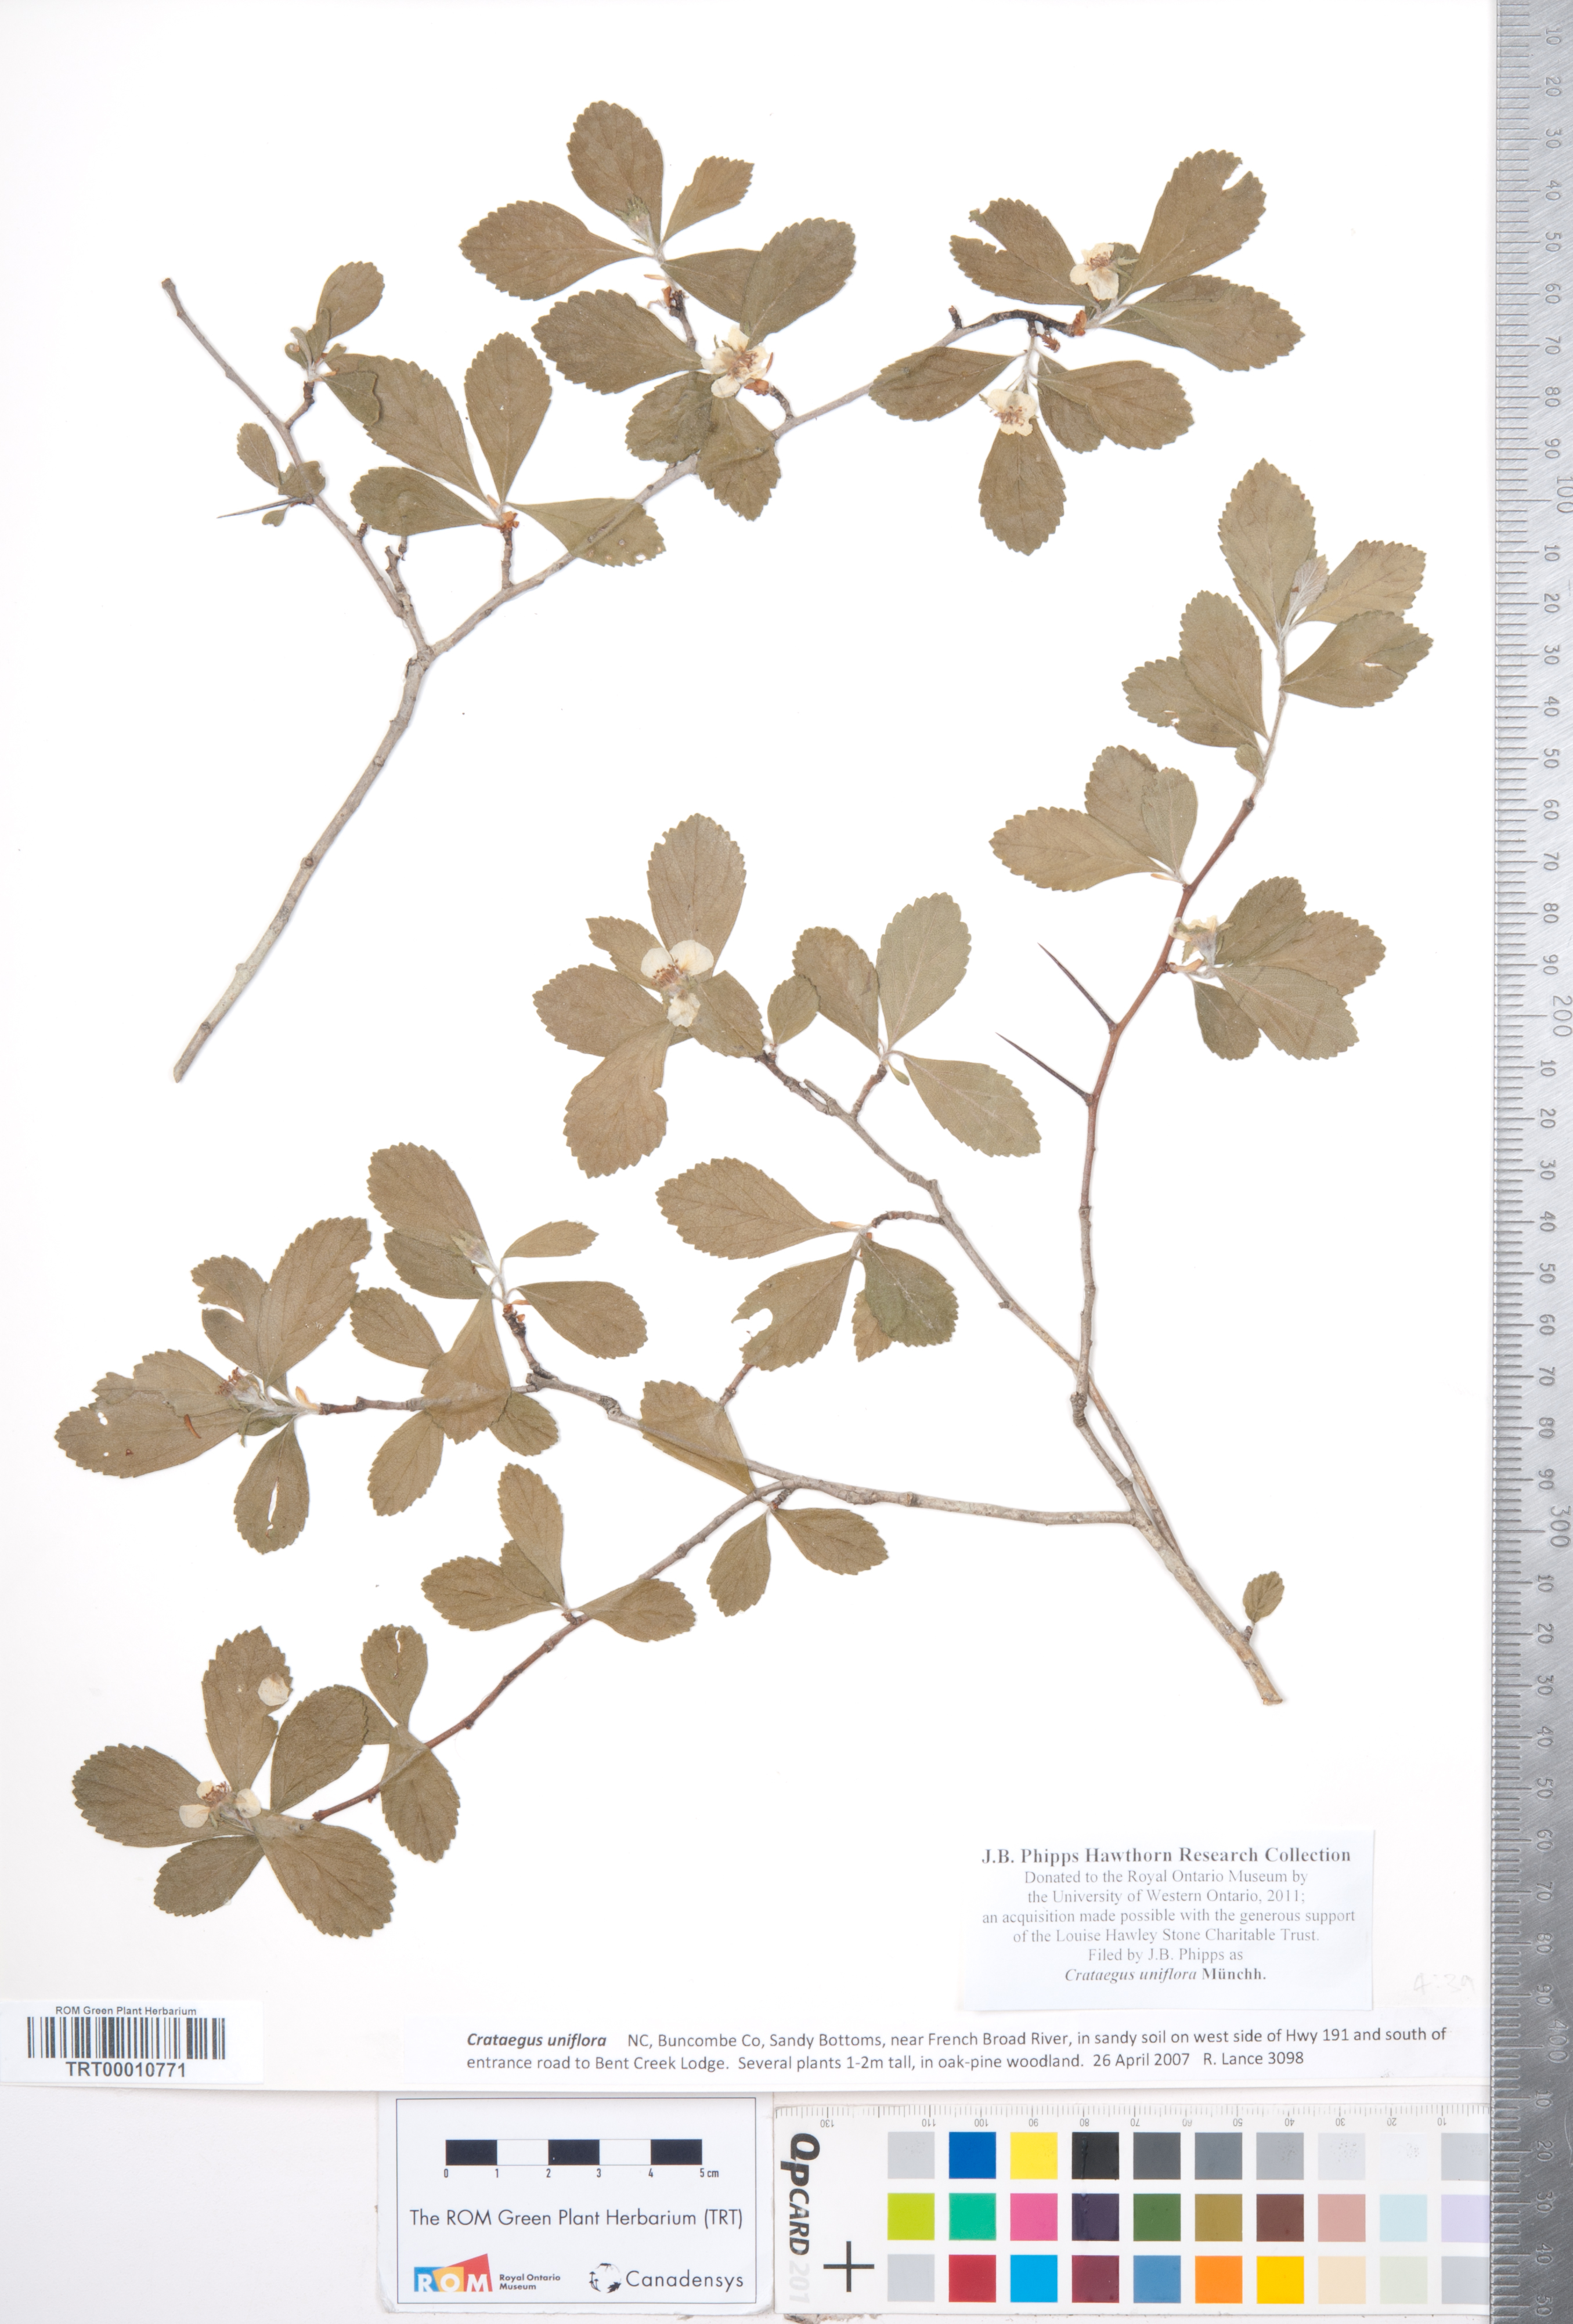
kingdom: Plantae
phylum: Tracheophyta
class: Magnoliopsida
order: Rosales
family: Rosaceae
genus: Crataegus
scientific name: Crataegus uniflora
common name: One-flower hawthorn
